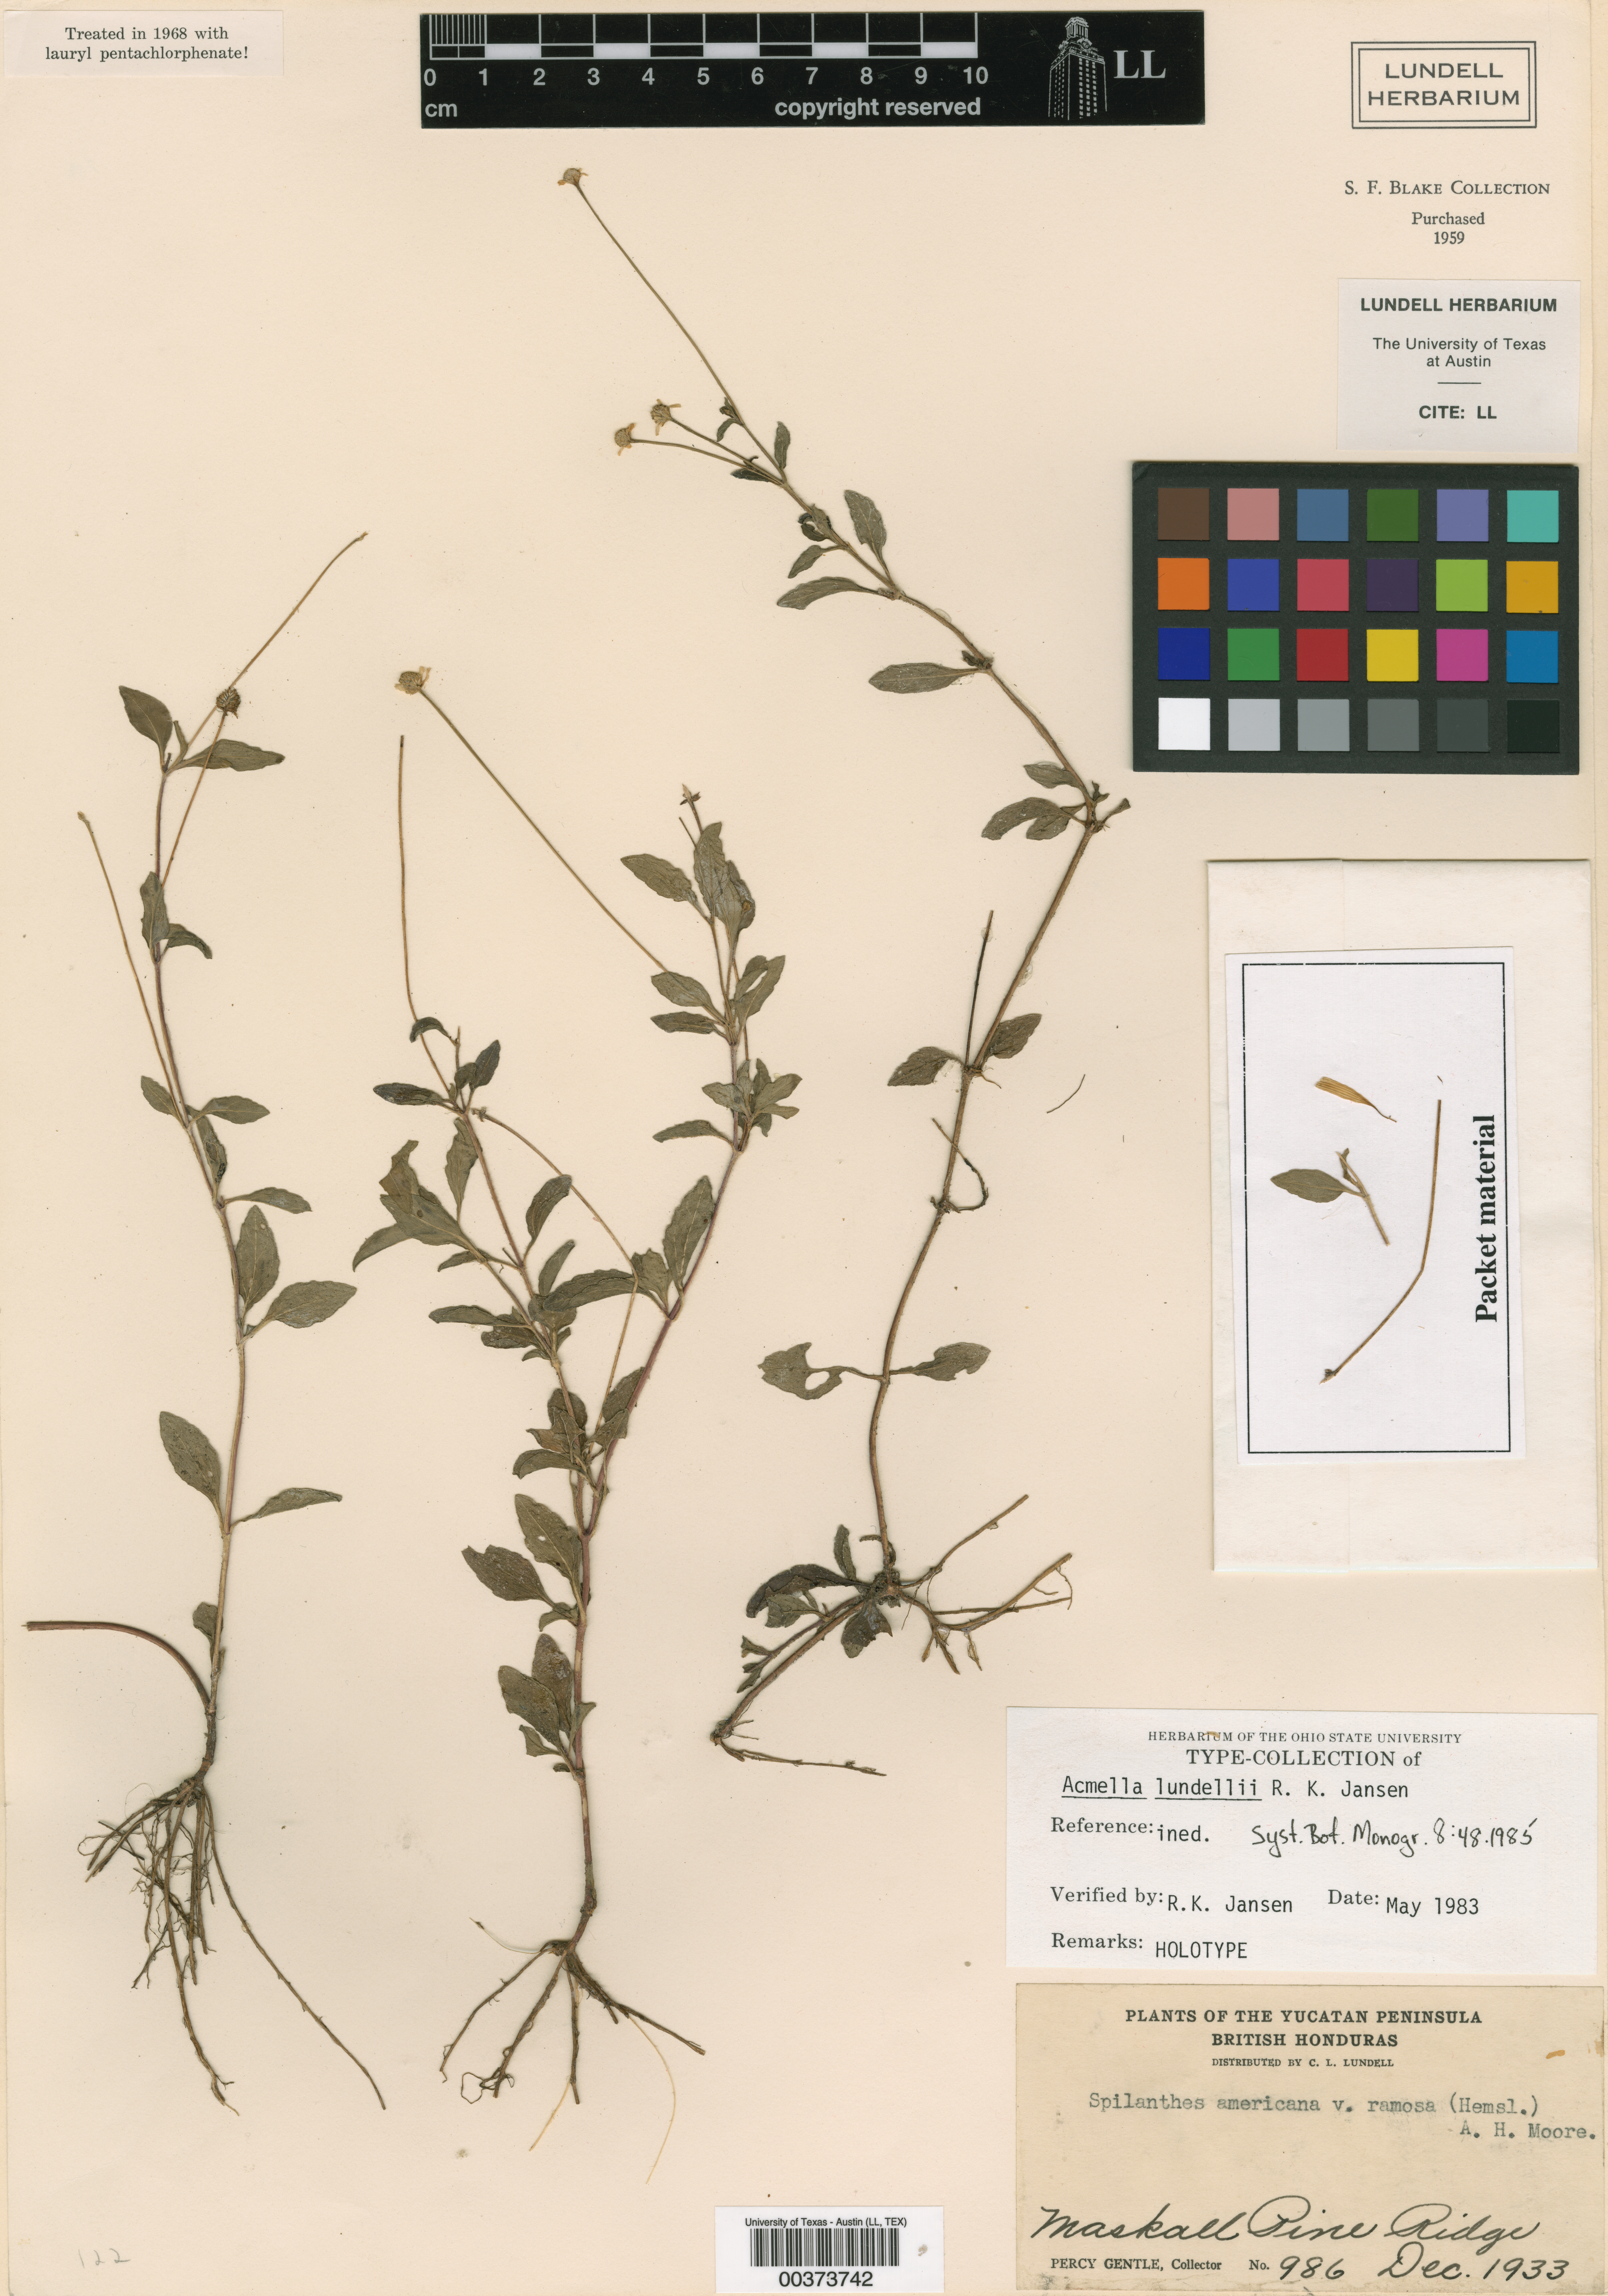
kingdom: Plantae
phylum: Tracheophyta
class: Magnoliopsida
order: Asterales
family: Asteraceae
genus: Acmella
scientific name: Acmella repens
